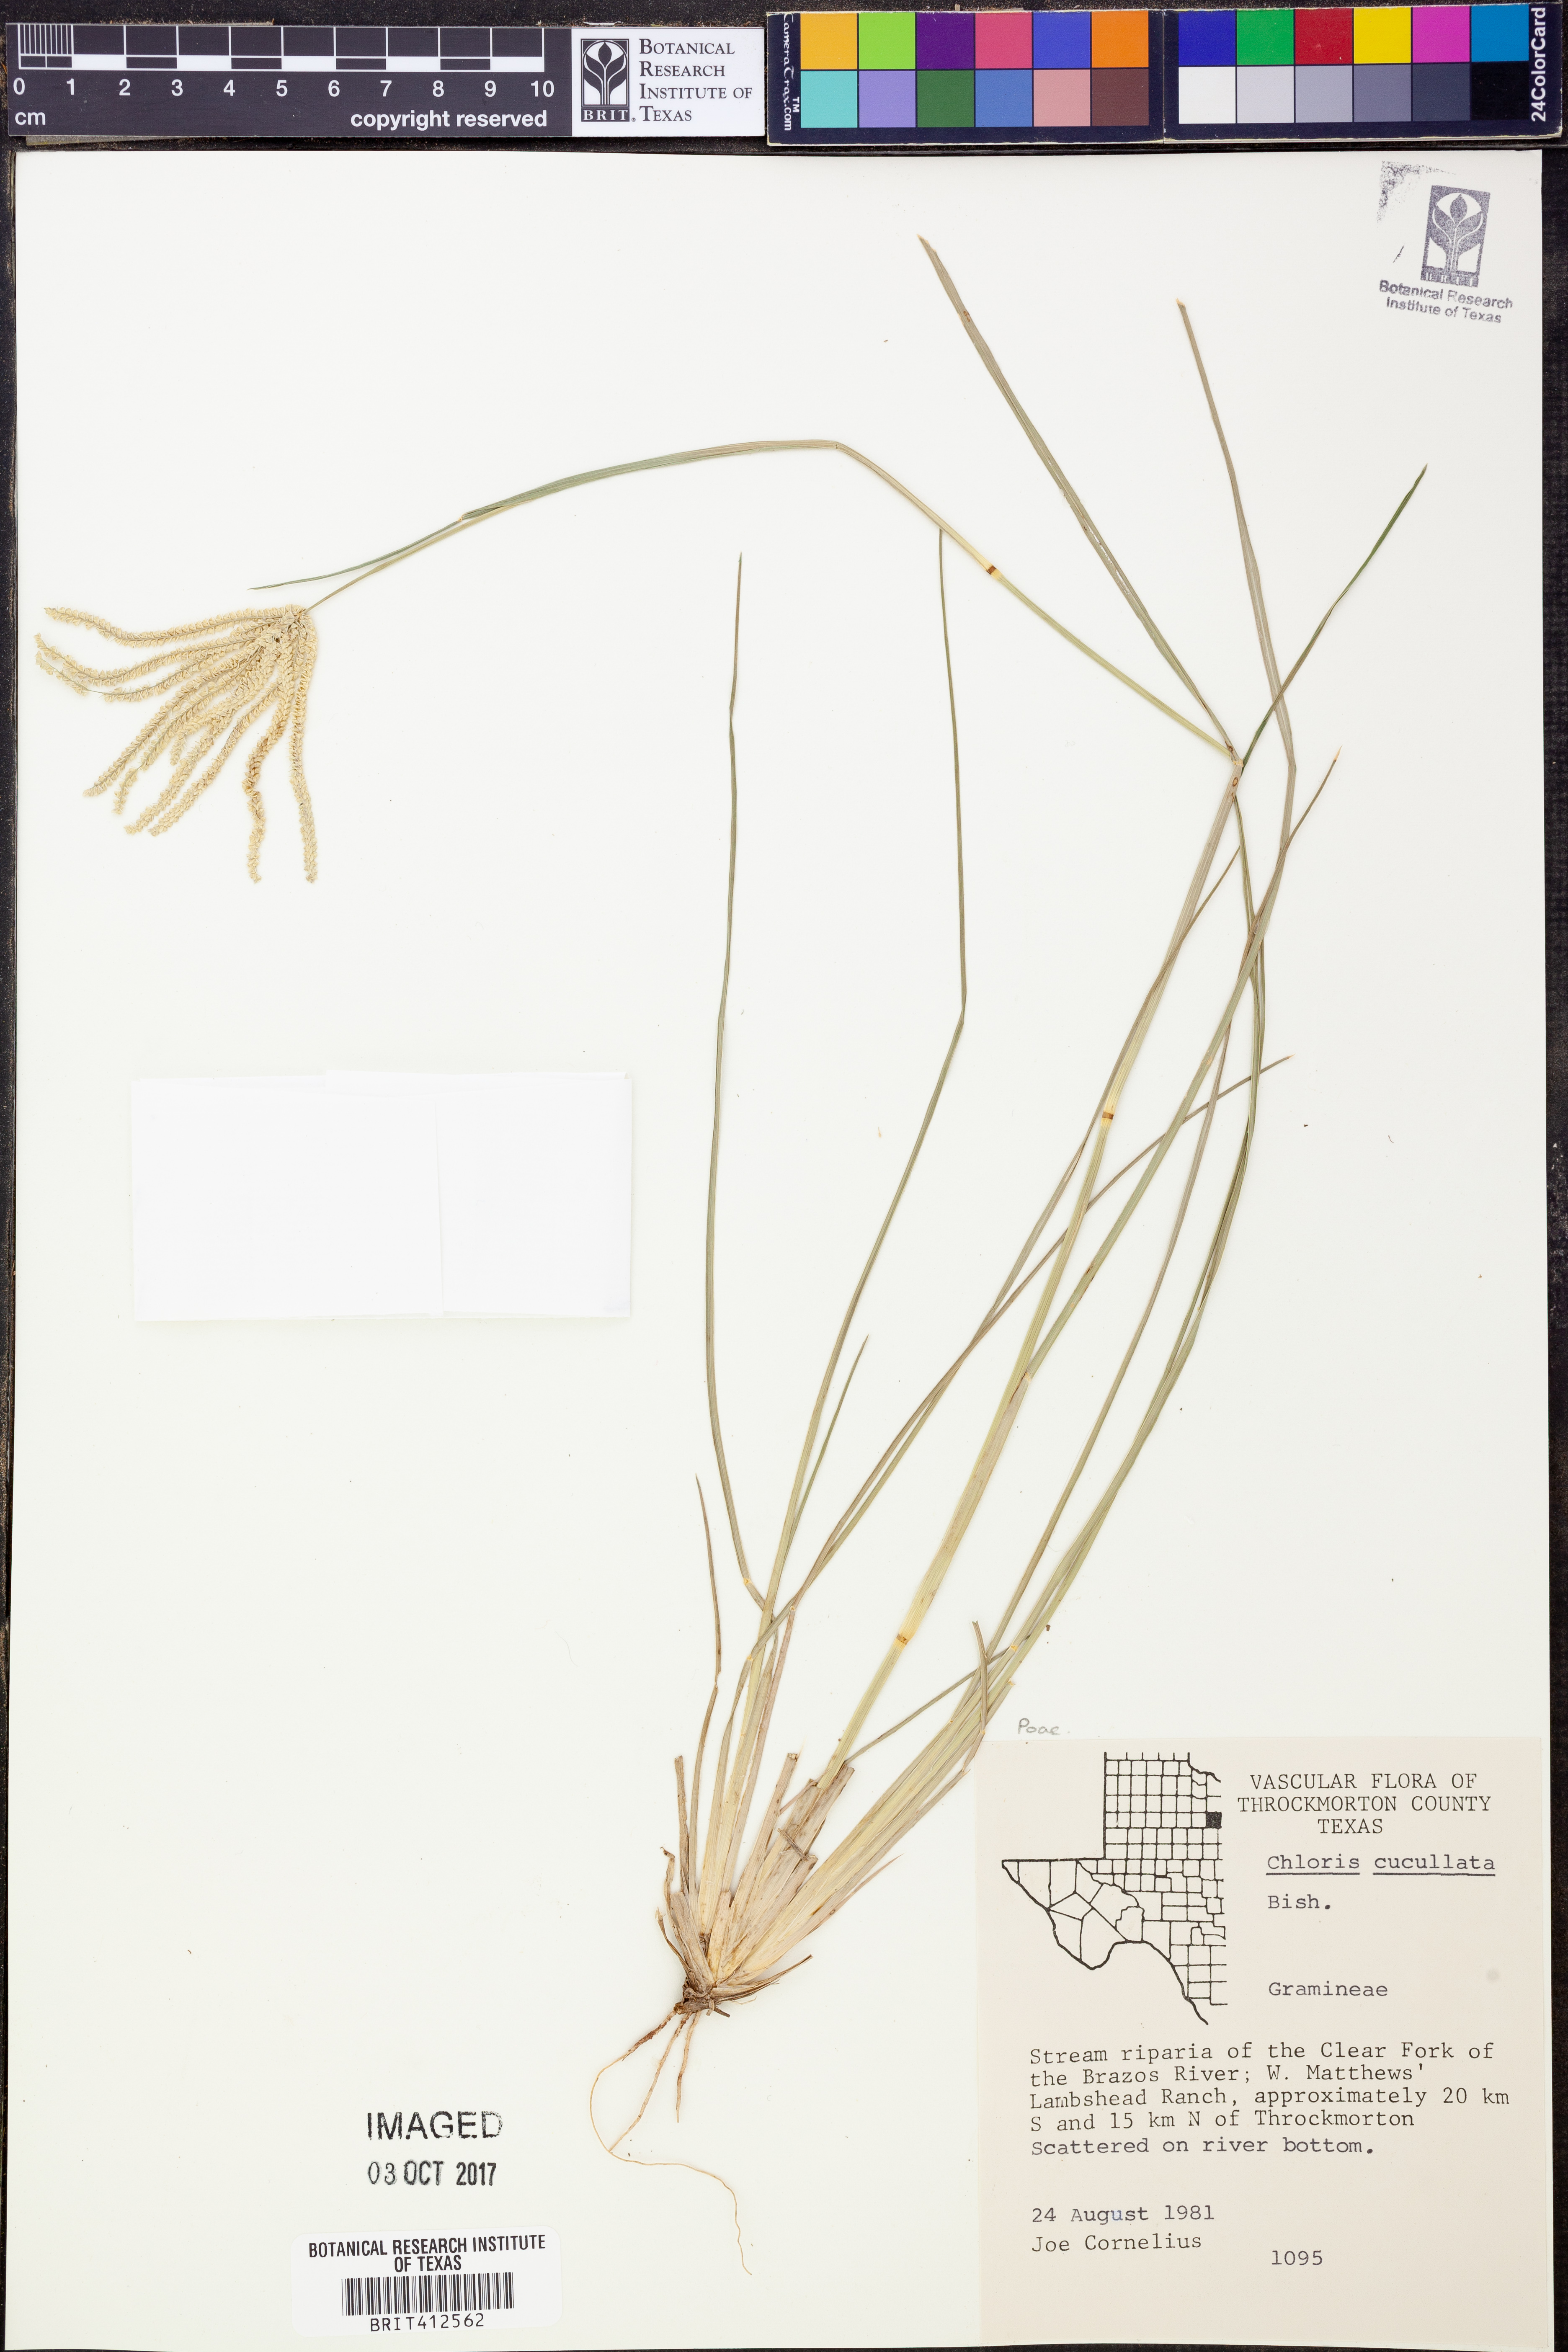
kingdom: Plantae
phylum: Tracheophyta
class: Liliopsida
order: Poales
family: Poaceae
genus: Chloris
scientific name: Chloris cucullata
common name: Hooded windmill grass
